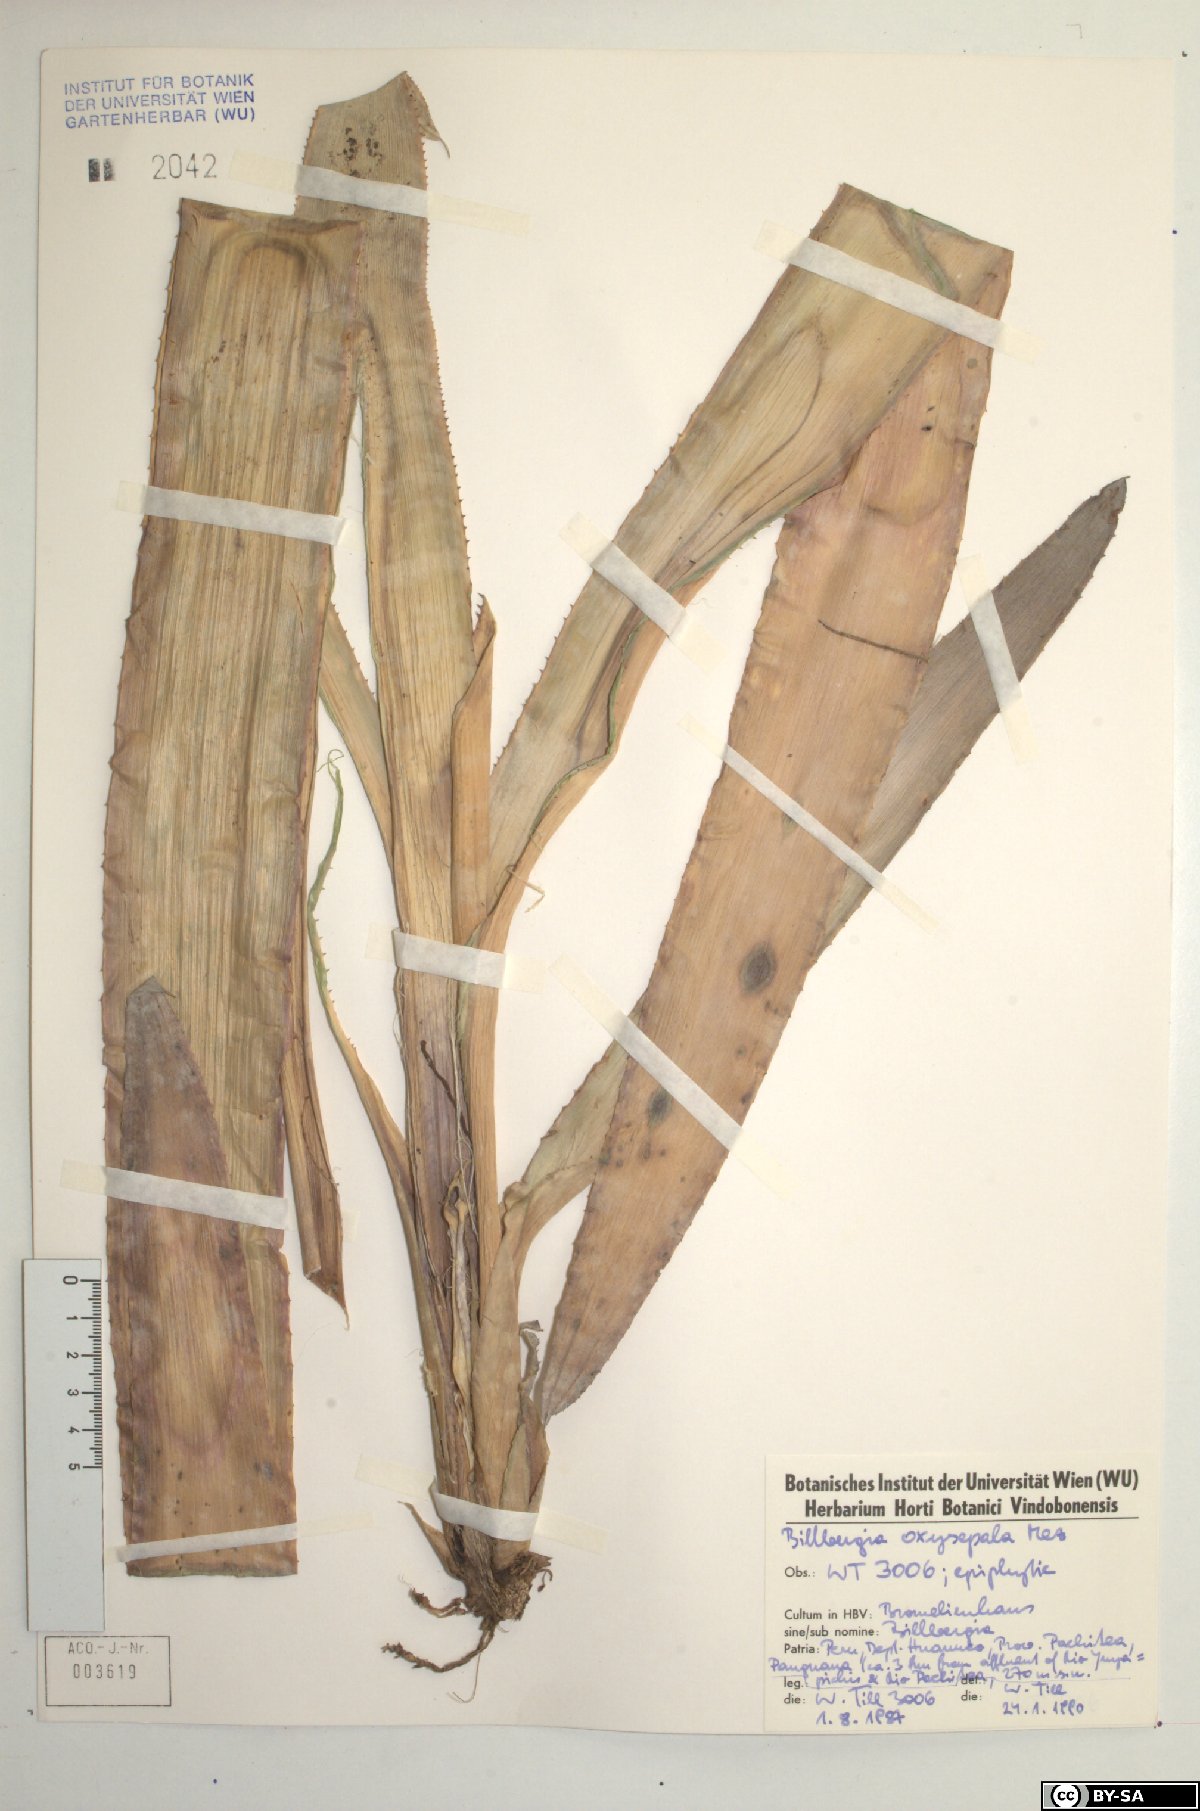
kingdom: Plantae
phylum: Tracheophyta
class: Liliopsida
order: Poales
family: Bromeliaceae
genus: Billbergia
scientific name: Billbergia oxysepala
